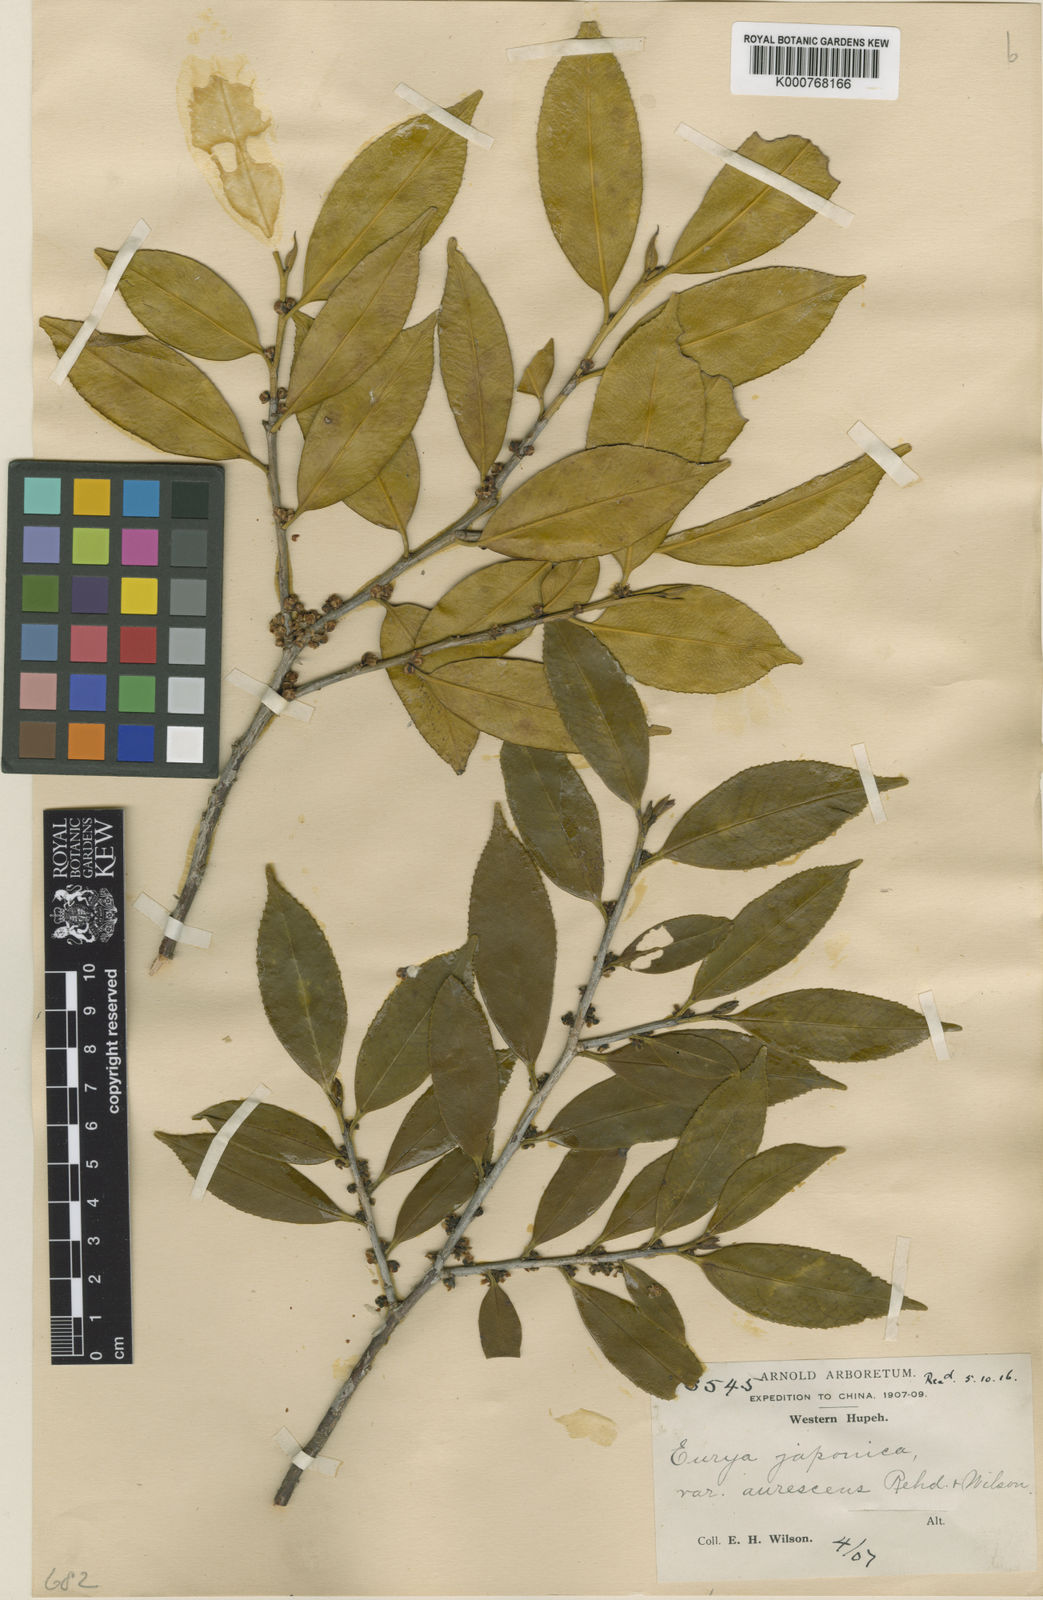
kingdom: Plantae
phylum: Tracheophyta
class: Magnoliopsida
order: Ericales
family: Pentaphylacaceae
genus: Eurya
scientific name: Eurya nitida
